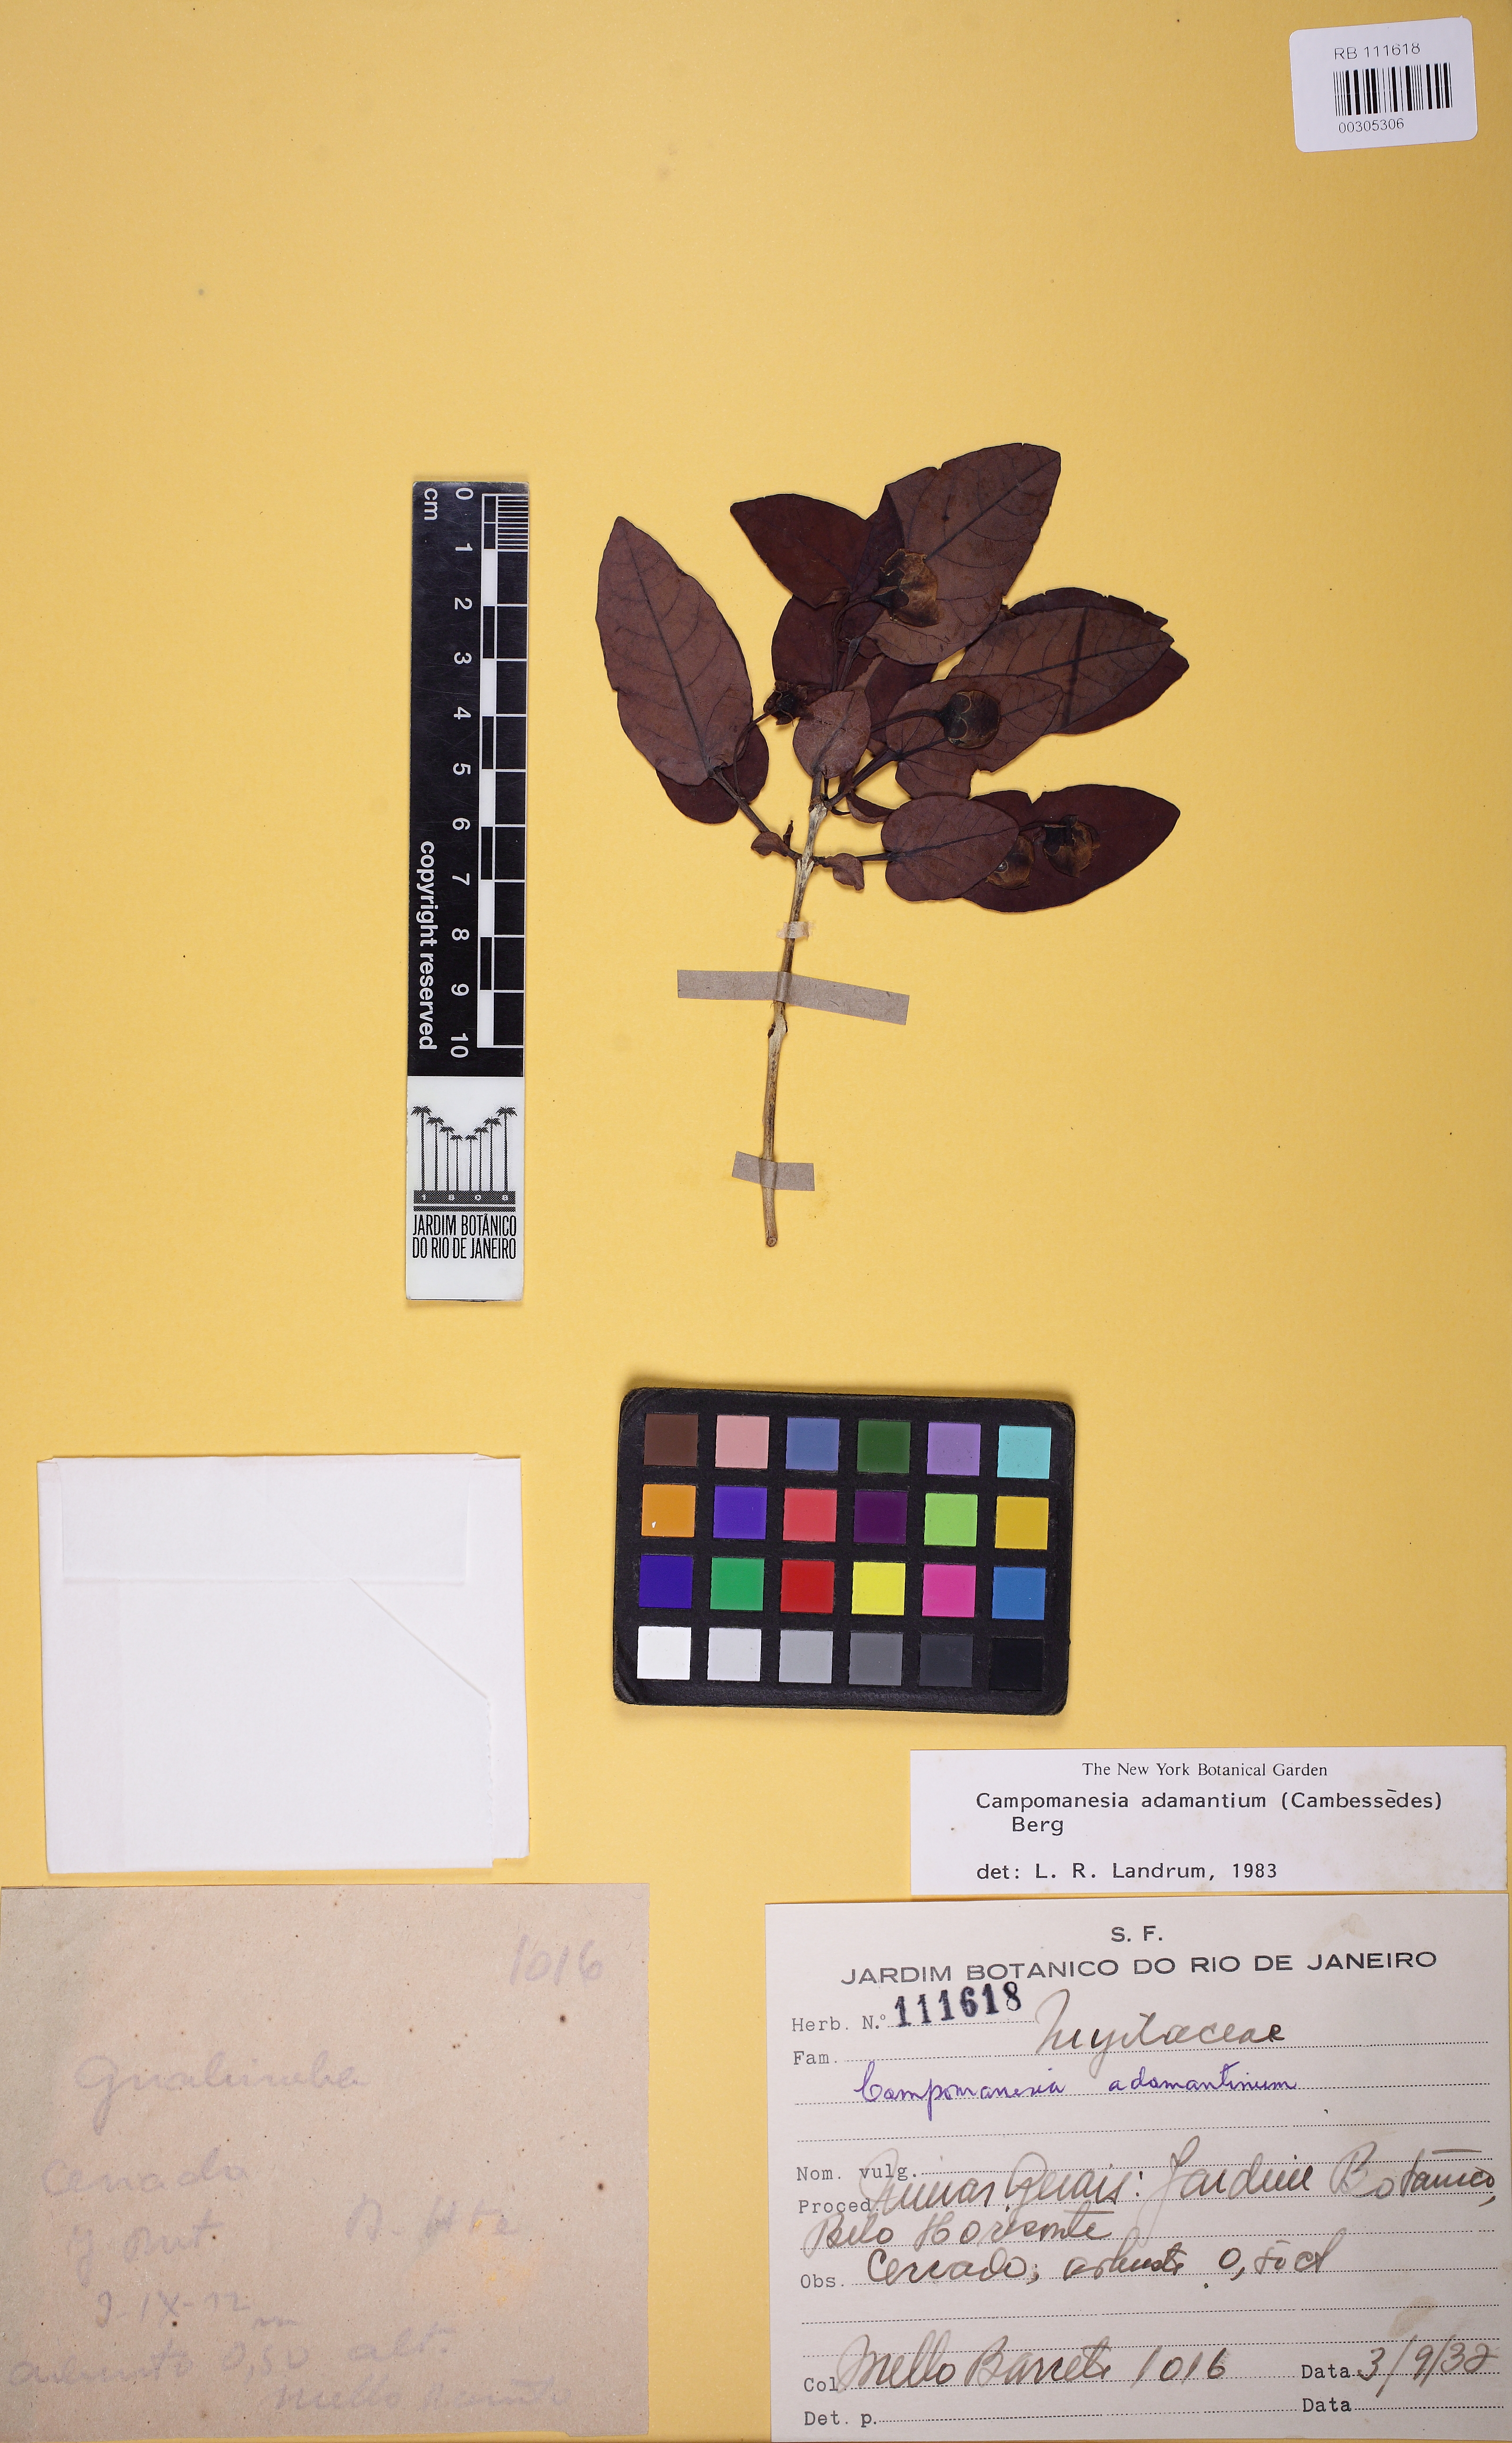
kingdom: Plantae
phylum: Tracheophyta
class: Magnoliopsida
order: Myrtales
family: Myrtaceae
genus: Campomanesia
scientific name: Campomanesia adamantium
